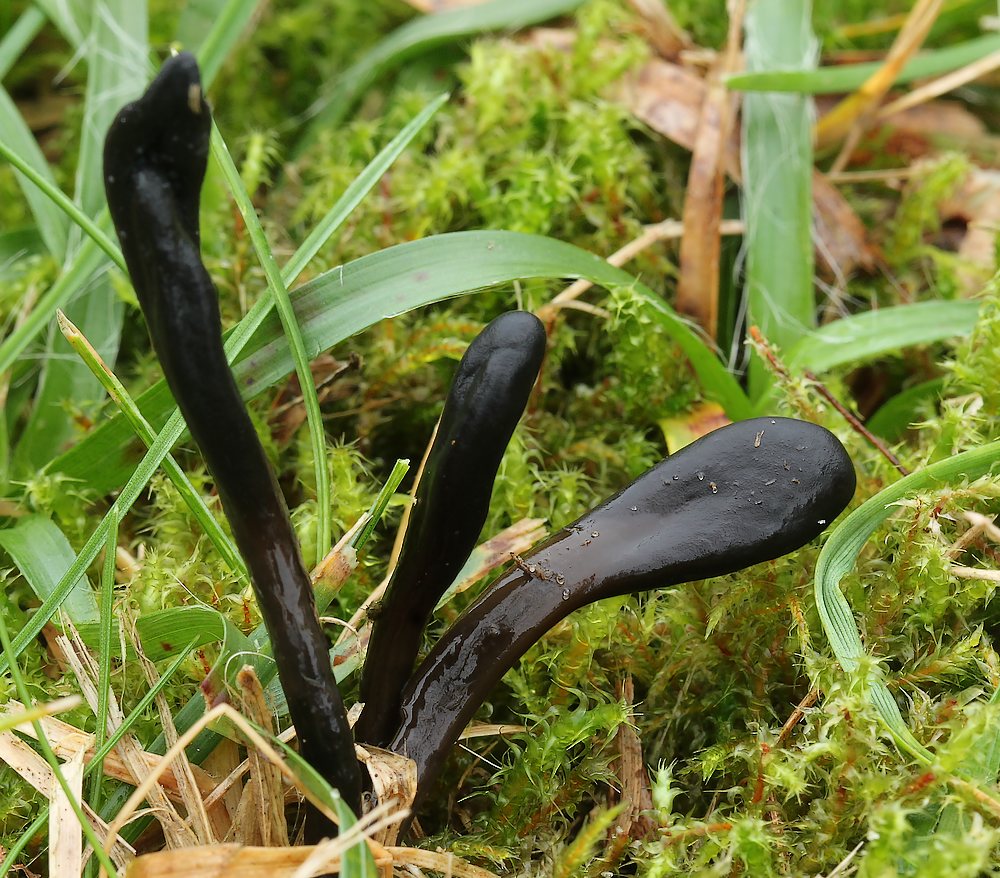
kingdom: Fungi
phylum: Ascomycota
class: Geoglossomycetes
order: Geoglossales
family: Geoglossaceae
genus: Glutinoglossum
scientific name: Glutinoglossum glutinosum
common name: slimet jordtunge
